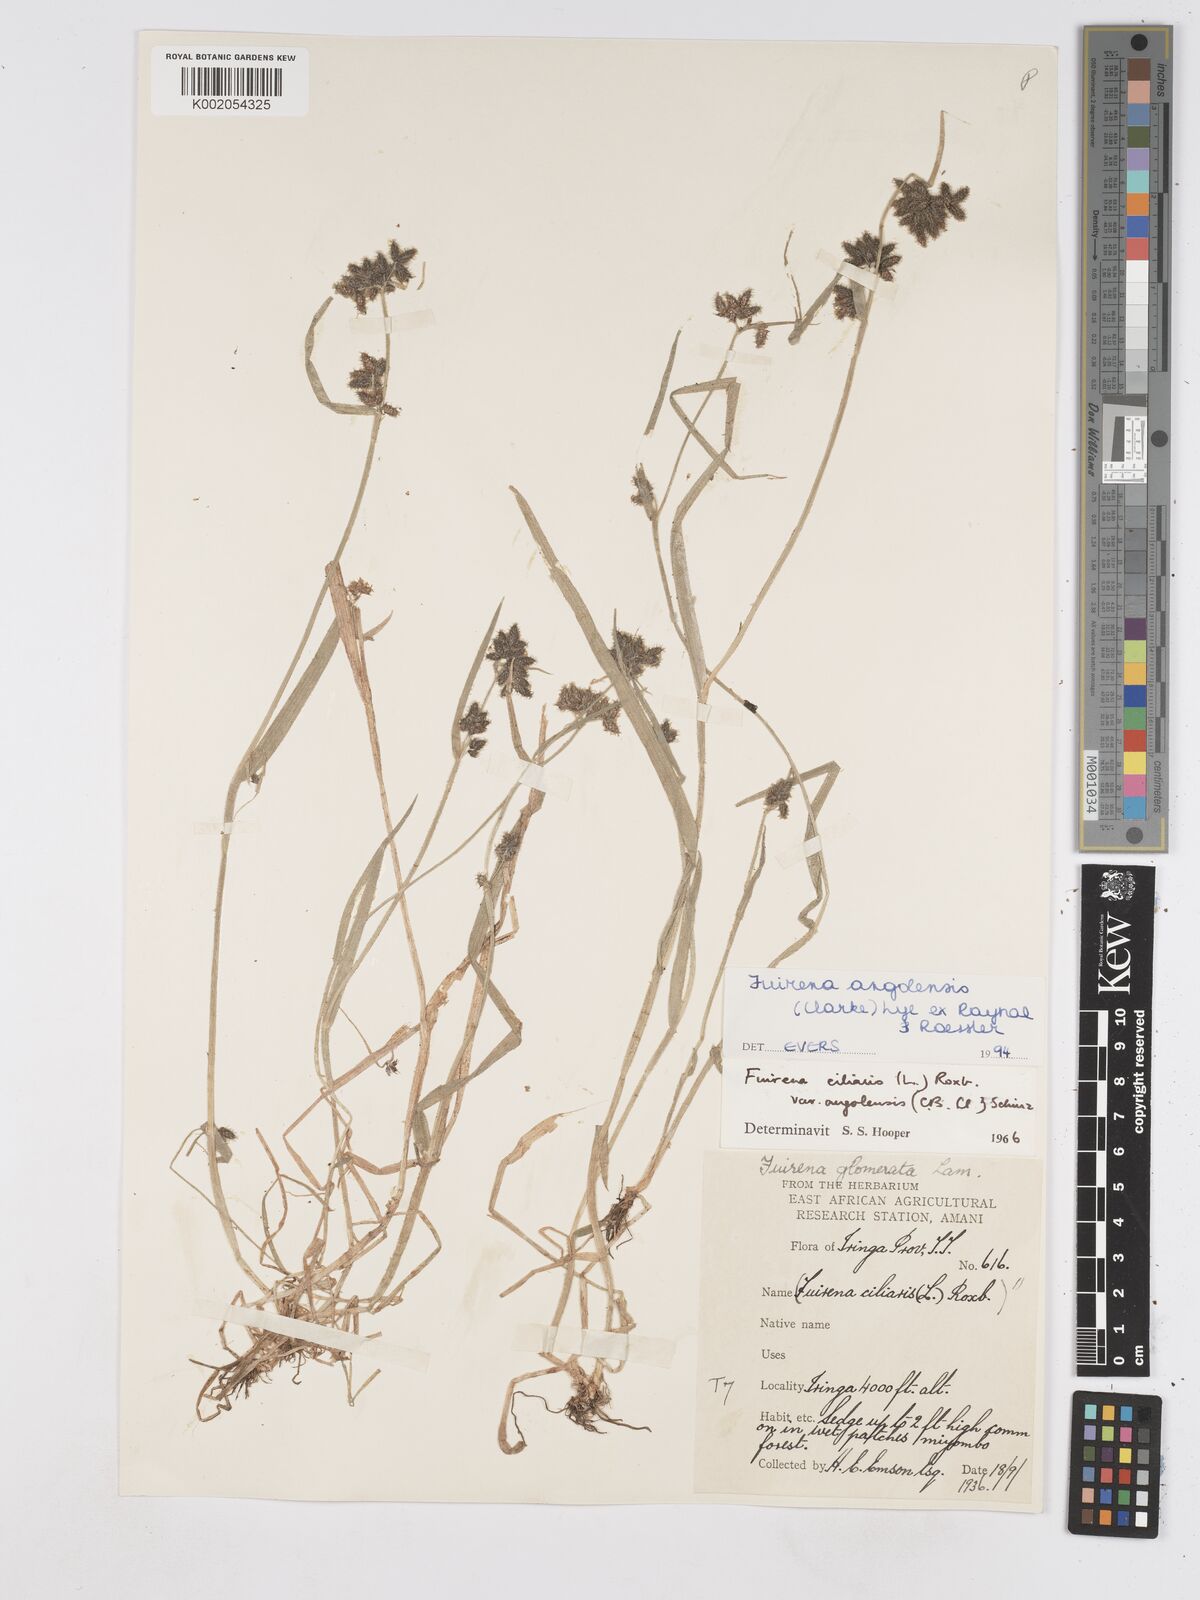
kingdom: Plantae
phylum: Tracheophyta
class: Liliopsida
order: Poales
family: Cyperaceae
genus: Fuirena
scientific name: Fuirena angolensis
